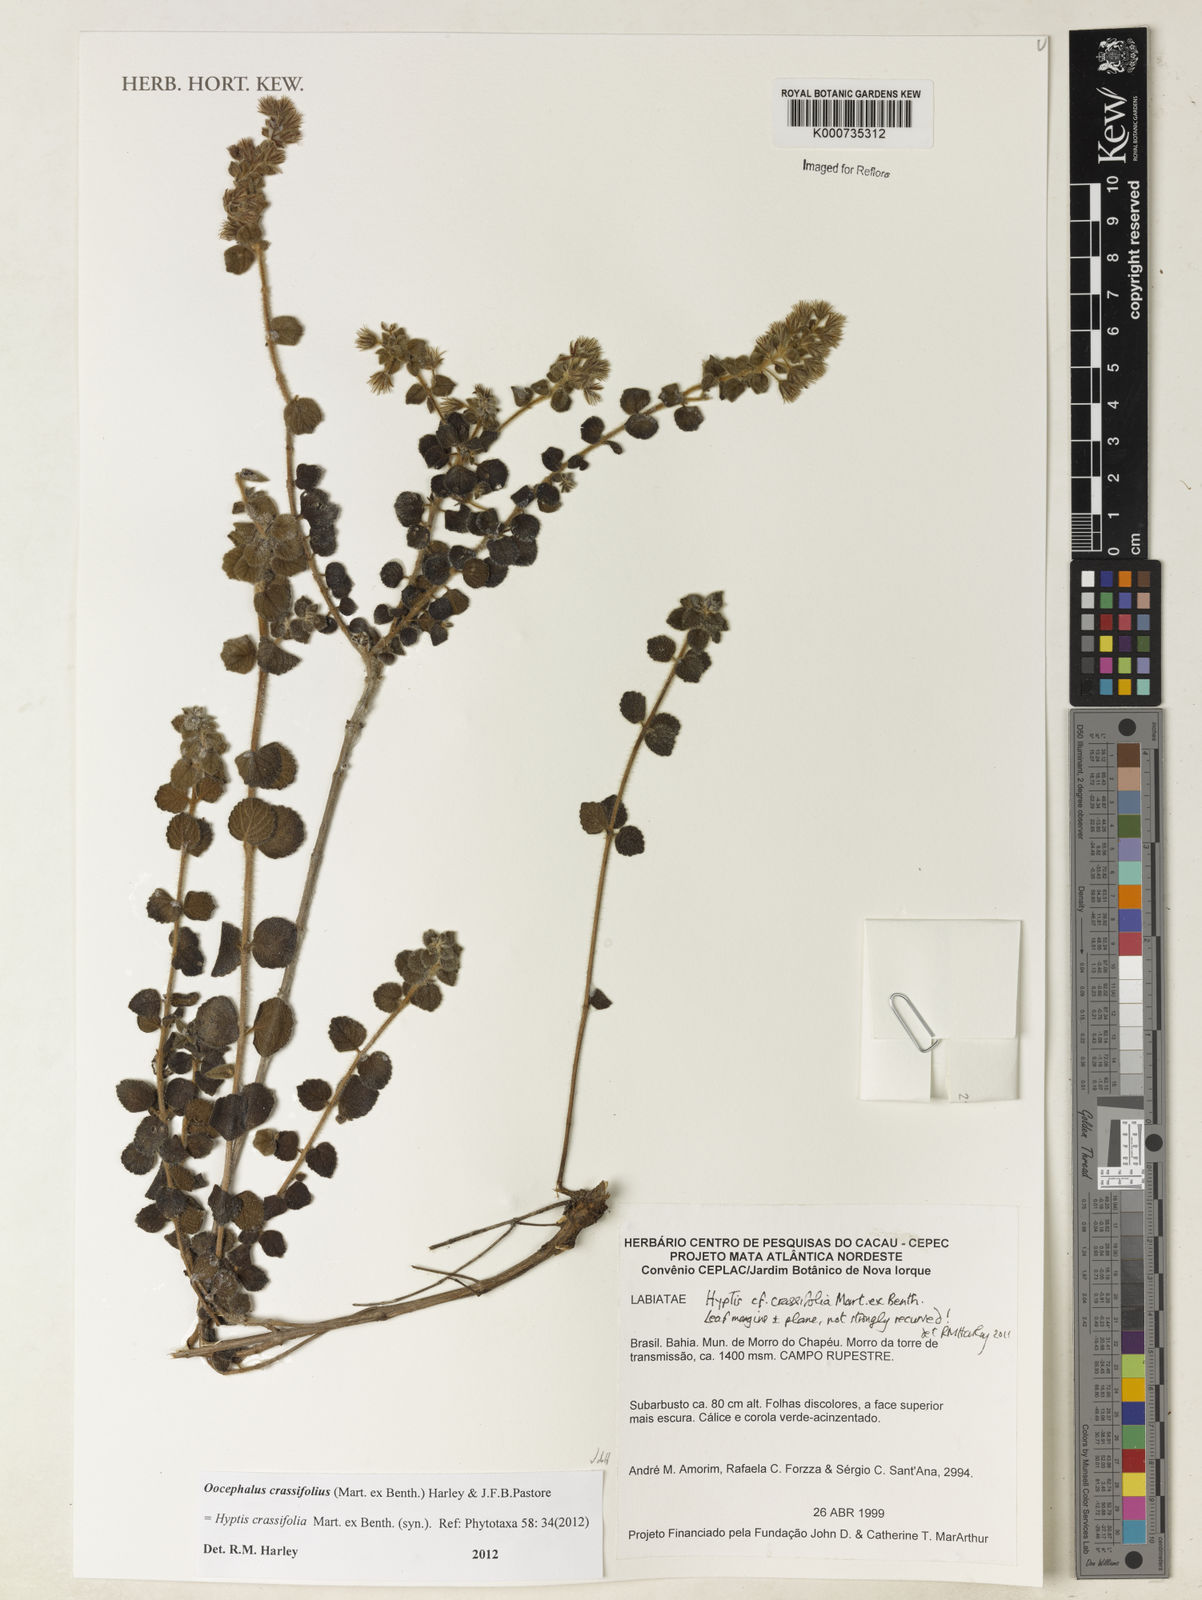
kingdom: Plantae
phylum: Tracheophyta
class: Magnoliopsida
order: Lamiales
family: Lamiaceae
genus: Oocephalus
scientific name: Oocephalus crassifolius
